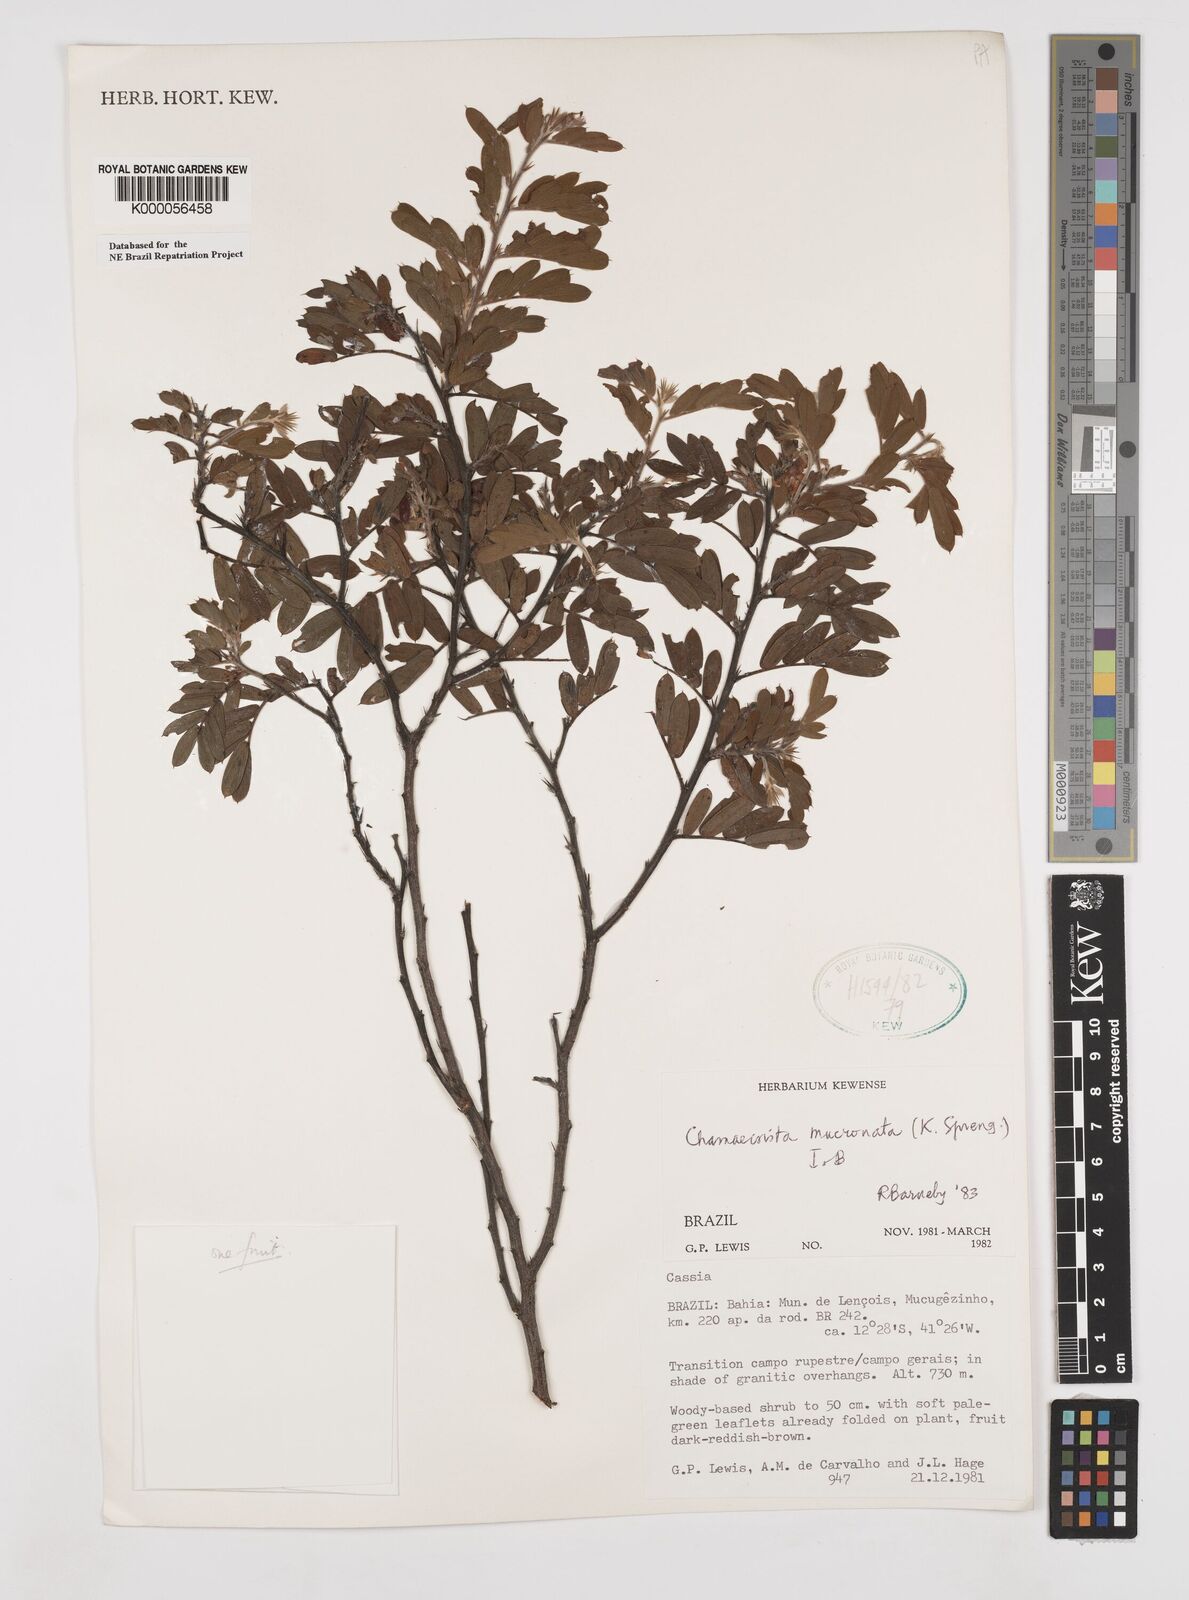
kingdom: Plantae
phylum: Tracheophyta
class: Magnoliopsida
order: Fabales
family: Fabaceae
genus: Chamaecrista
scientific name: Chamaecrista mucronata
